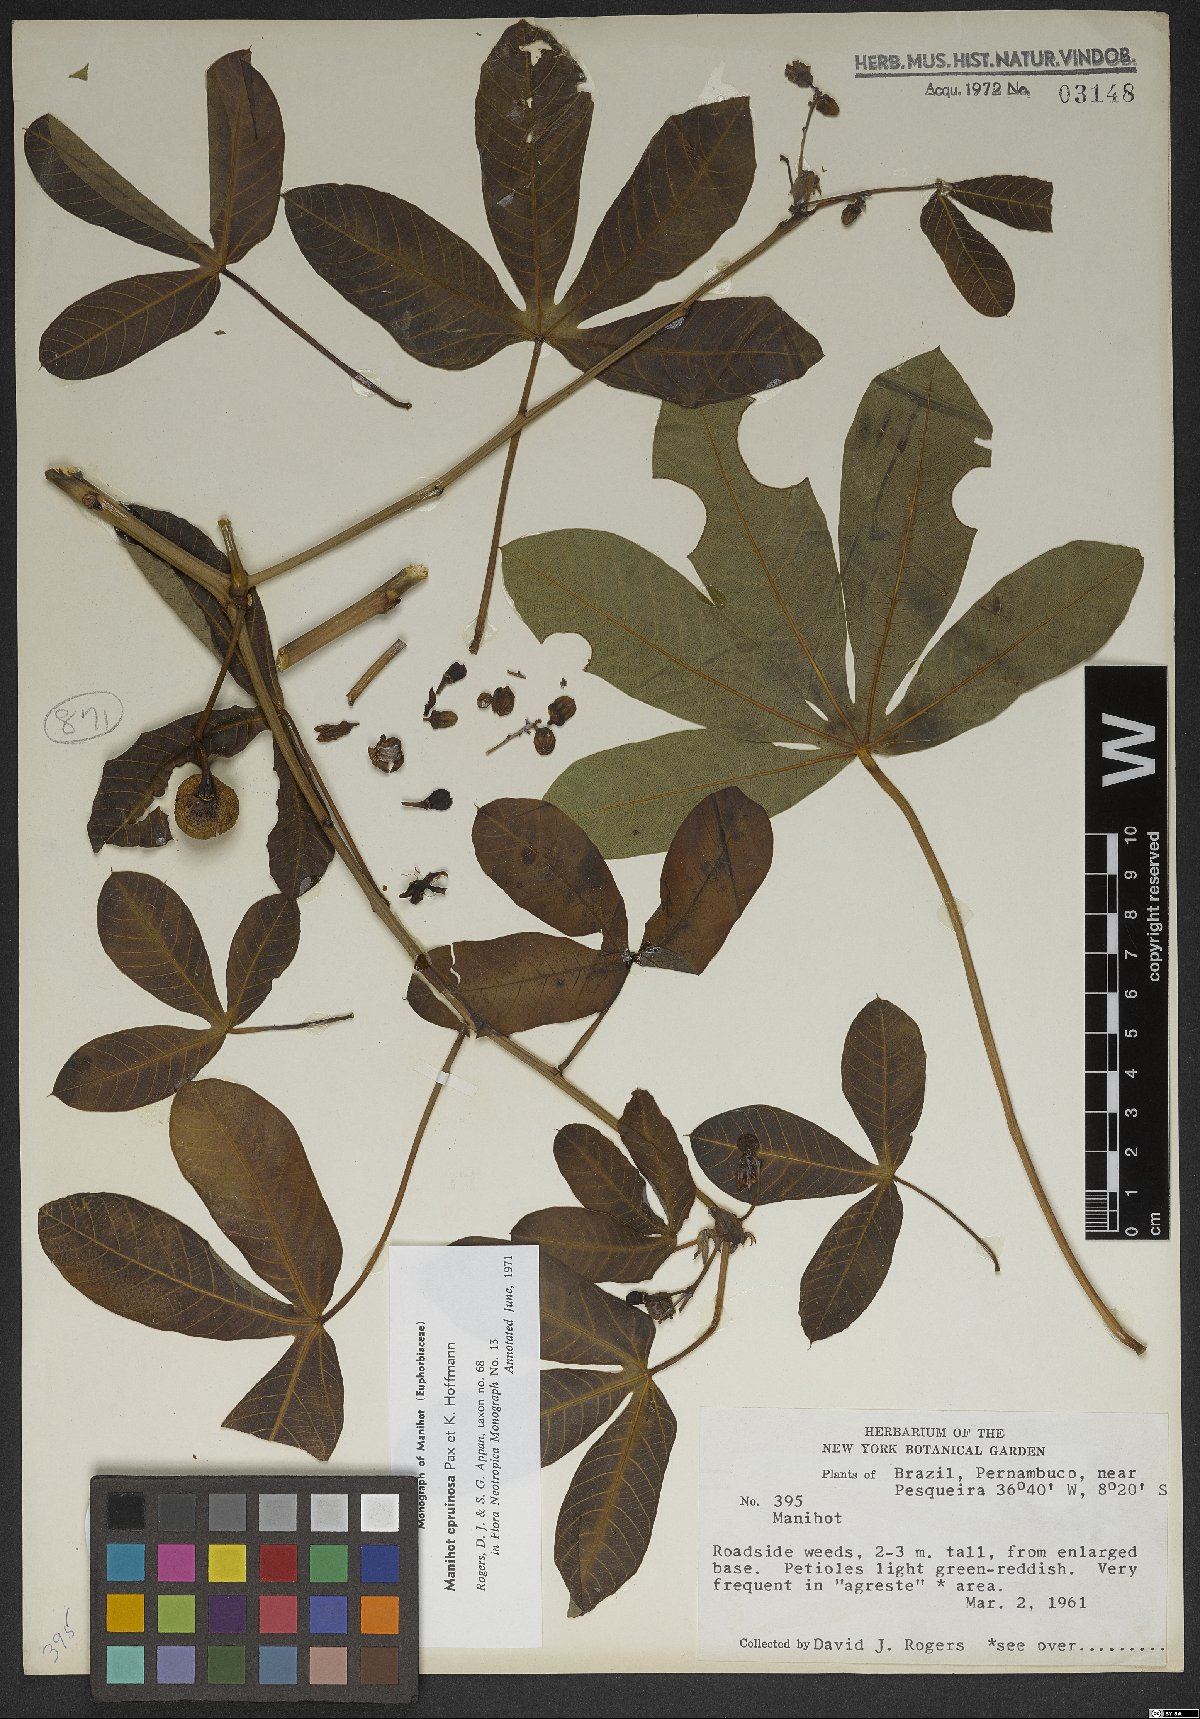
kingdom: Plantae
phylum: Tracheophyta
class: Magnoliopsida
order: Malpighiales
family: Euphorbiaceae
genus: Manihot
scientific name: Manihot epruinosa
